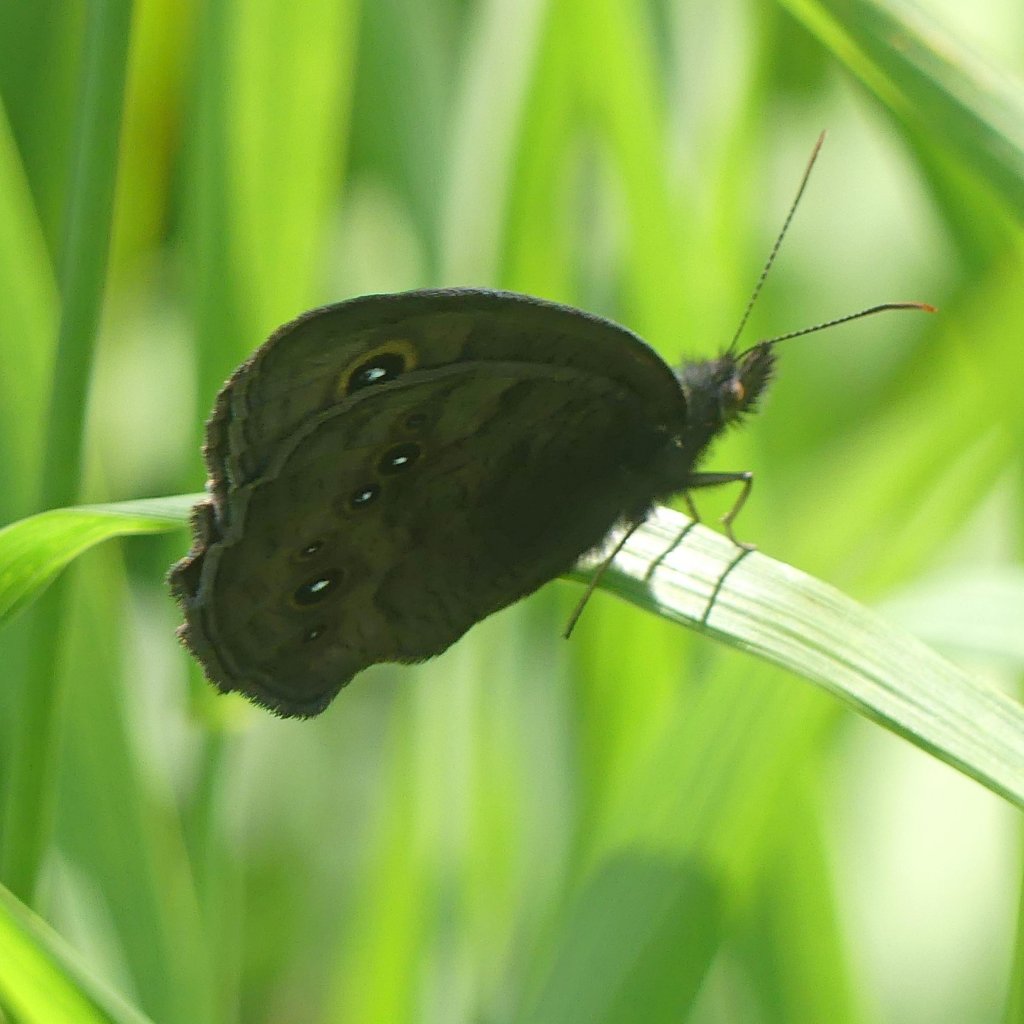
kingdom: Animalia
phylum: Arthropoda
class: Insecta
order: Lepidoptera
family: Nymphalidae
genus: Cercyonis
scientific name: Cercyonis pegala
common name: Common Wood-Nymph
